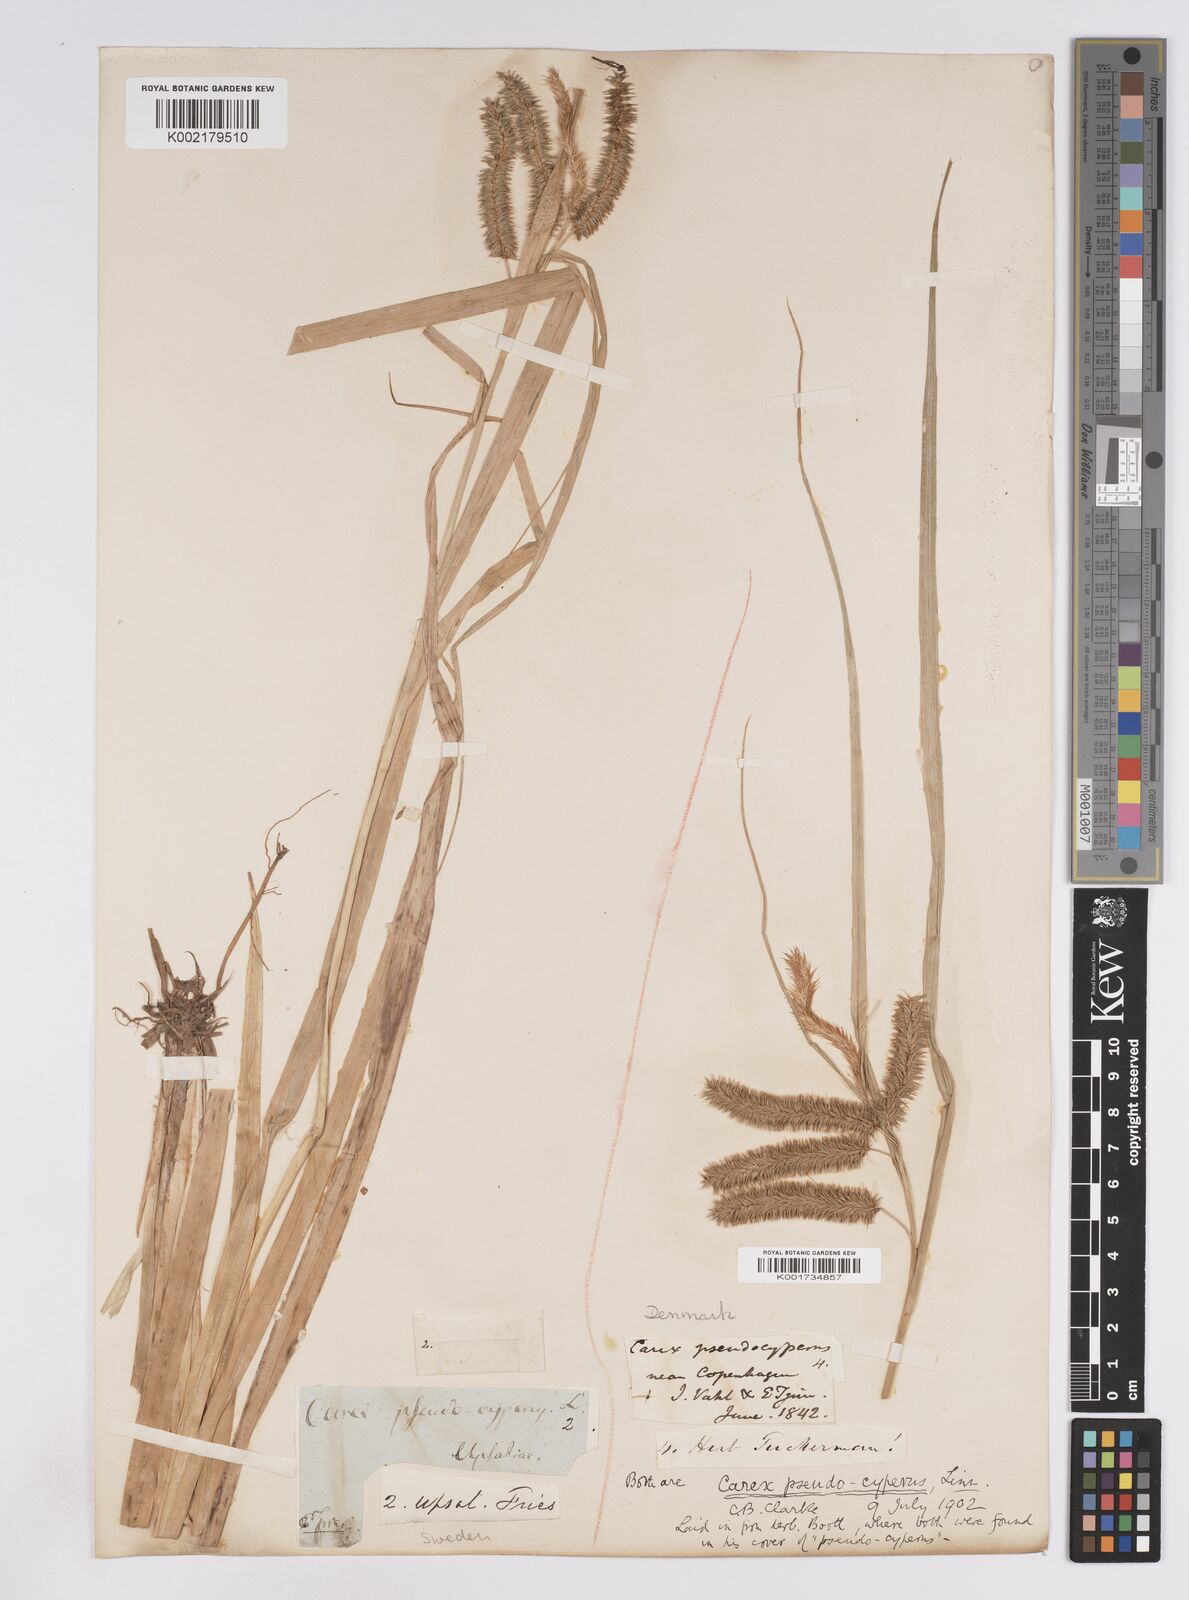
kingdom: Plantae
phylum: Tracheophyta
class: Liliopsida
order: Poales
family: Cyperaceae
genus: Carex
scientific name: Carex pseudocyperus
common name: Cyperus sedge
